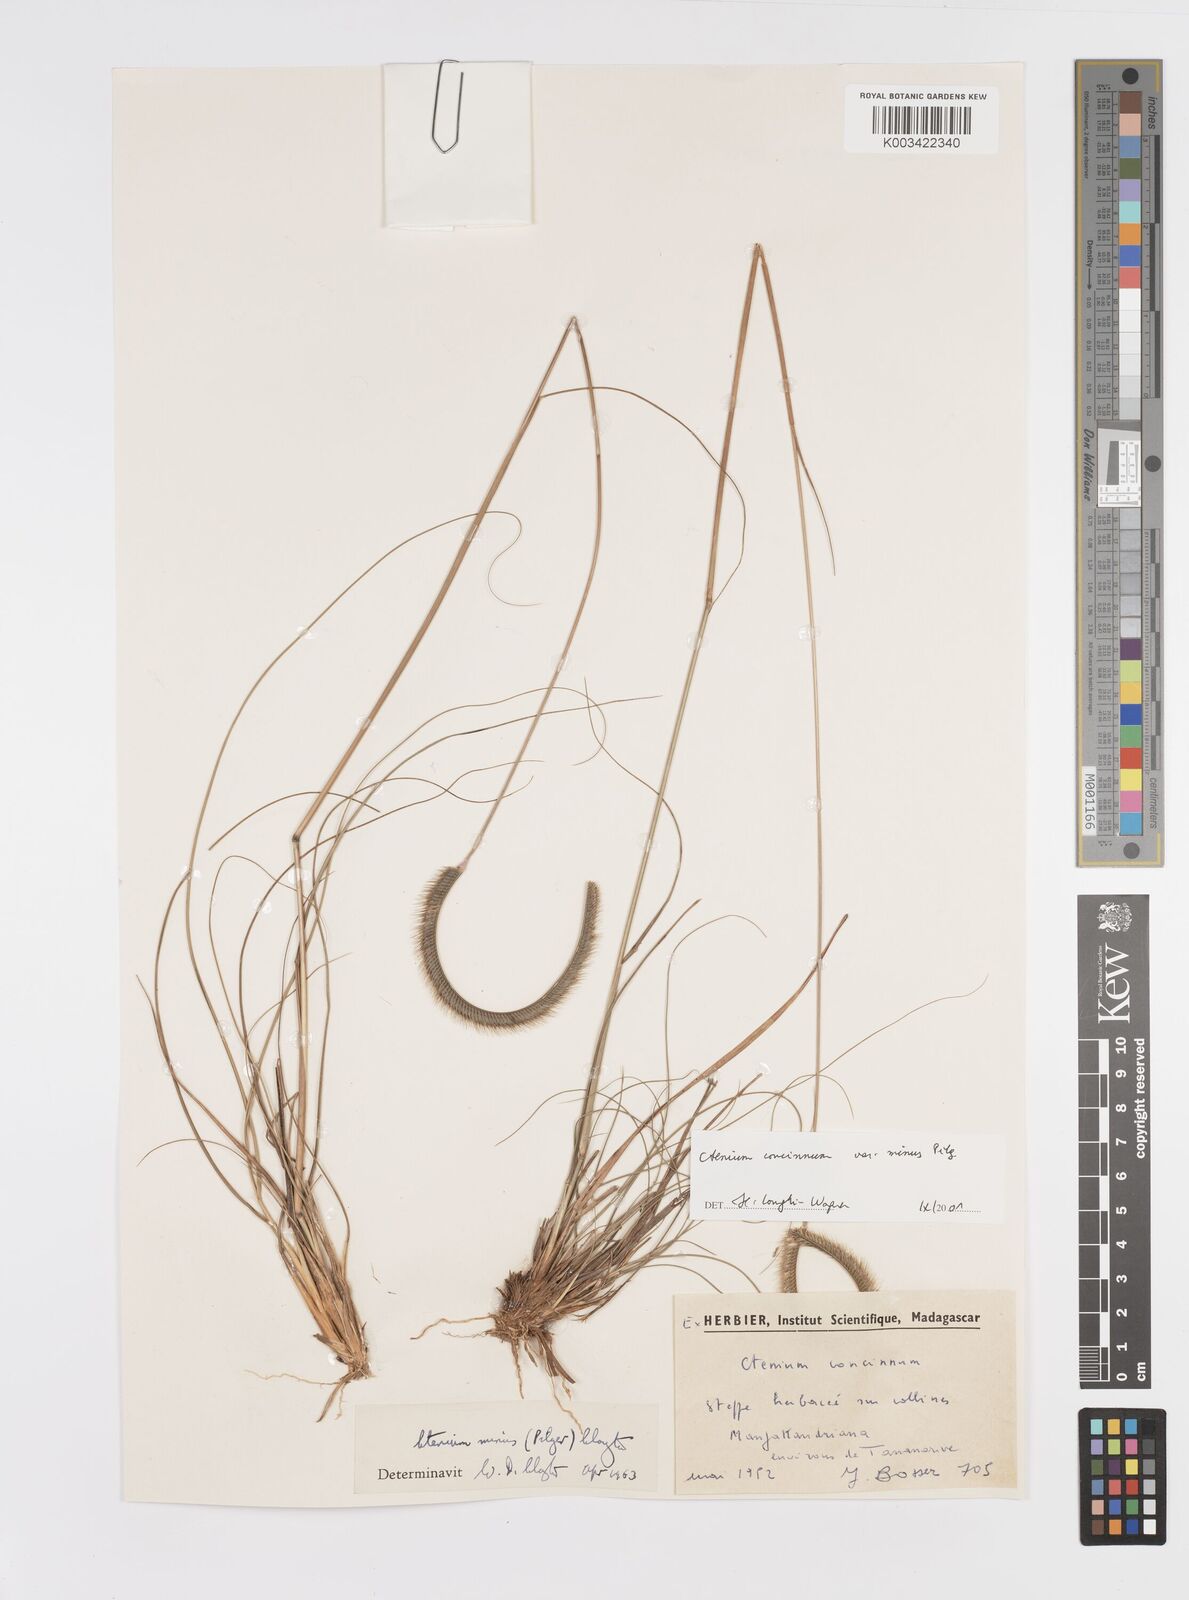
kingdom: Plantae
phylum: Tracheophyta
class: Liliopsida
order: Poales
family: Poaceae
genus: Ctenium
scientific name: Ctenium concinnum
